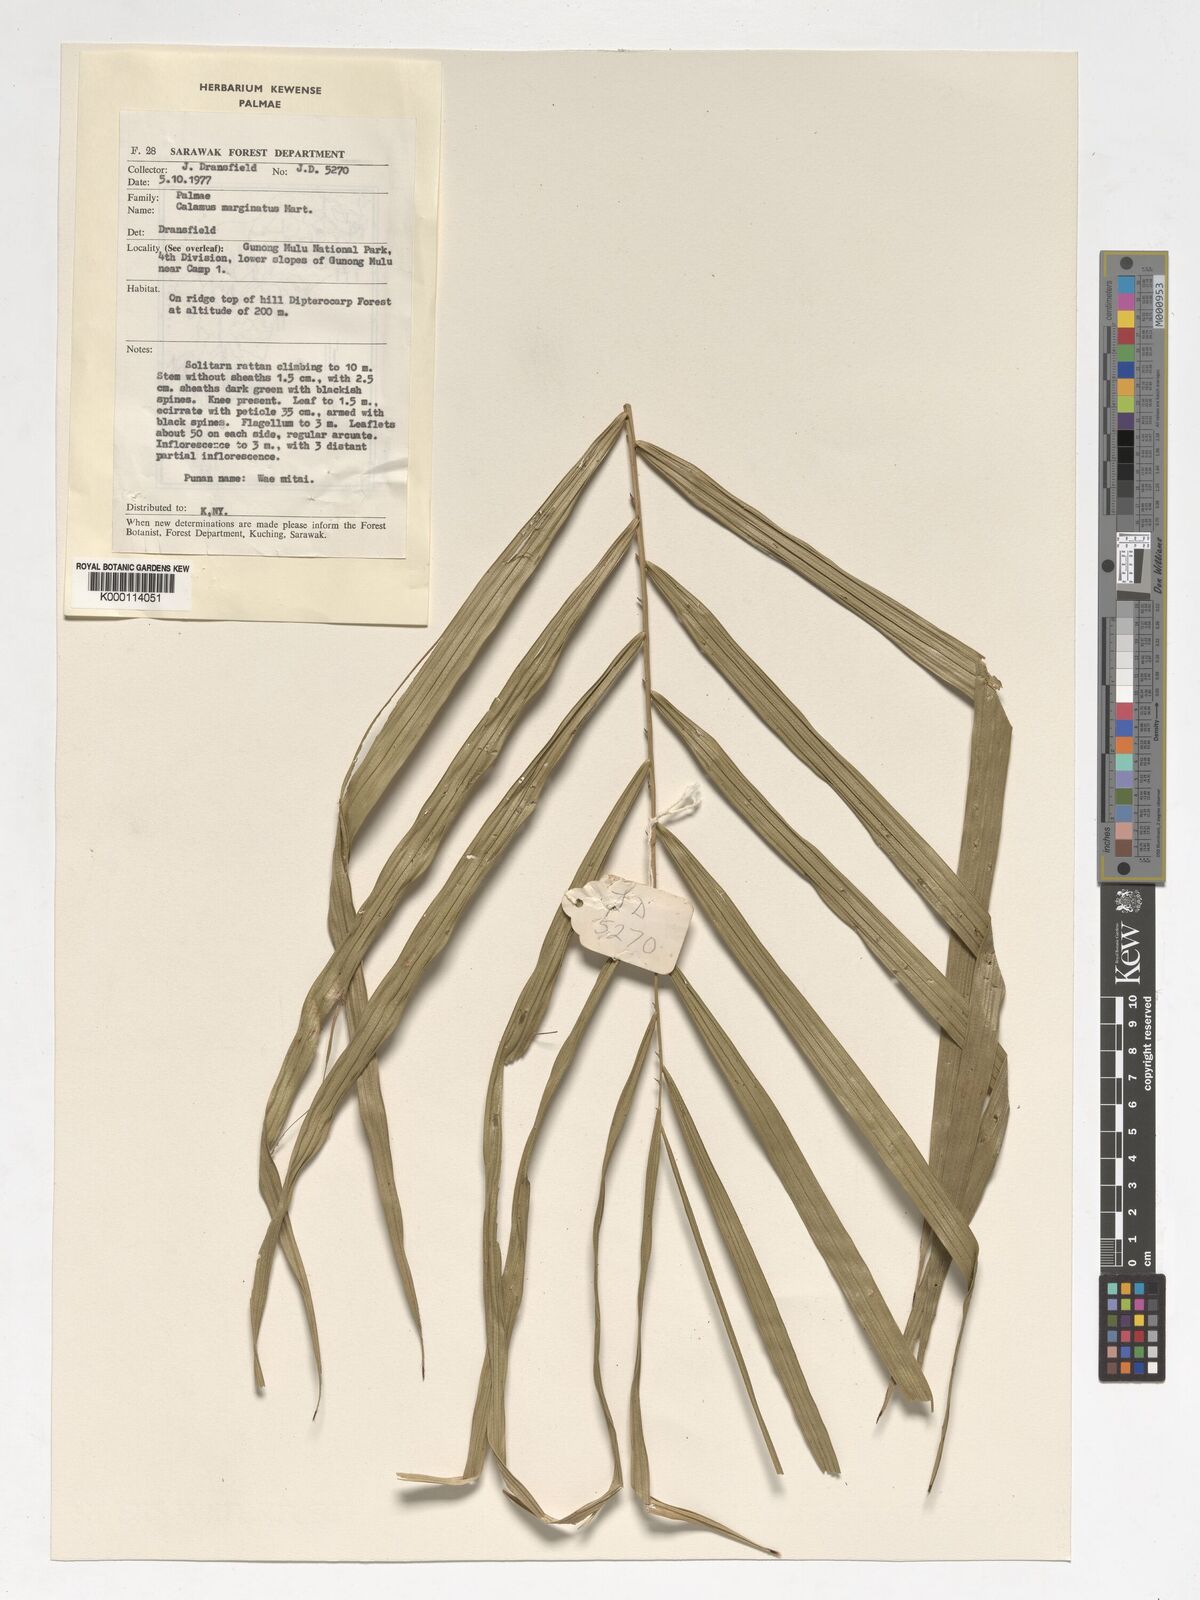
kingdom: Plantae
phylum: Tracheophyta
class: Liliopsida
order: Arecales
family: Arecaceae
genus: Calamus
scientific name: Calamus
